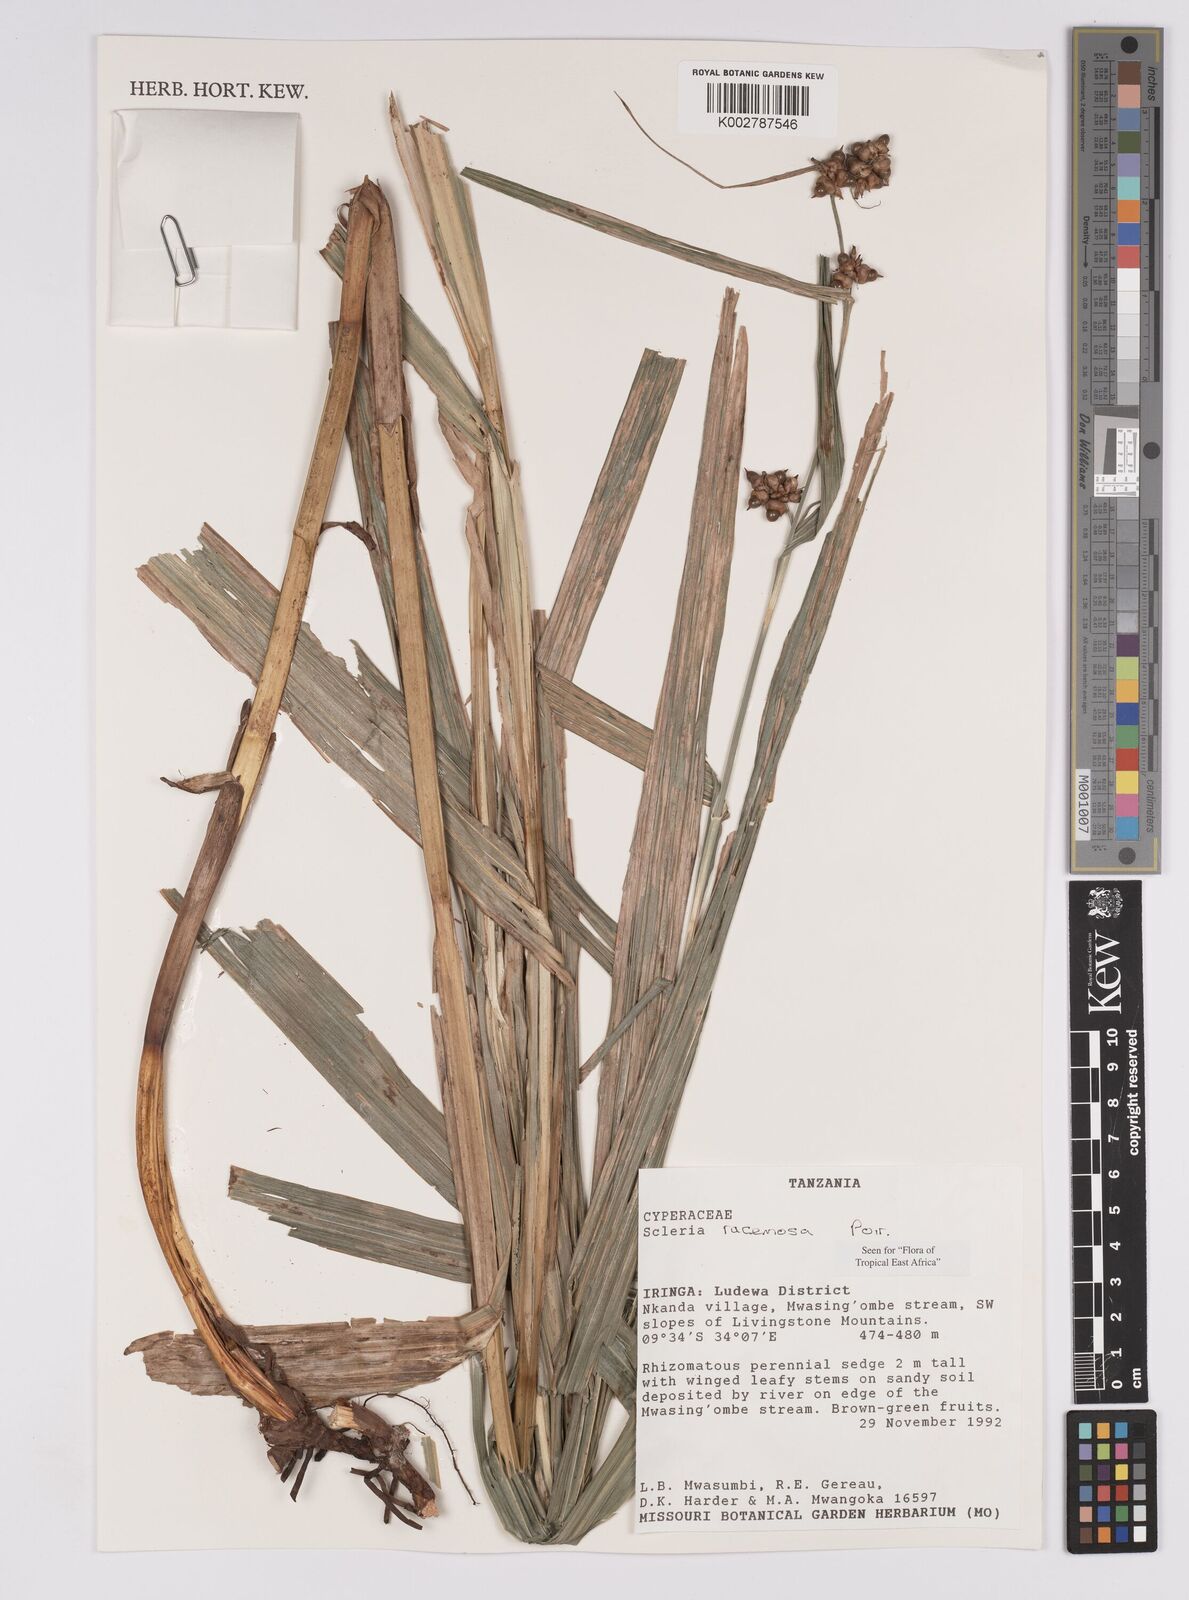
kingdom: Plantae
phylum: Tracheophyta
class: Liliopsida
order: Poales
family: Cyperaceae
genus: Scleria
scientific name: Scleria racemosa
